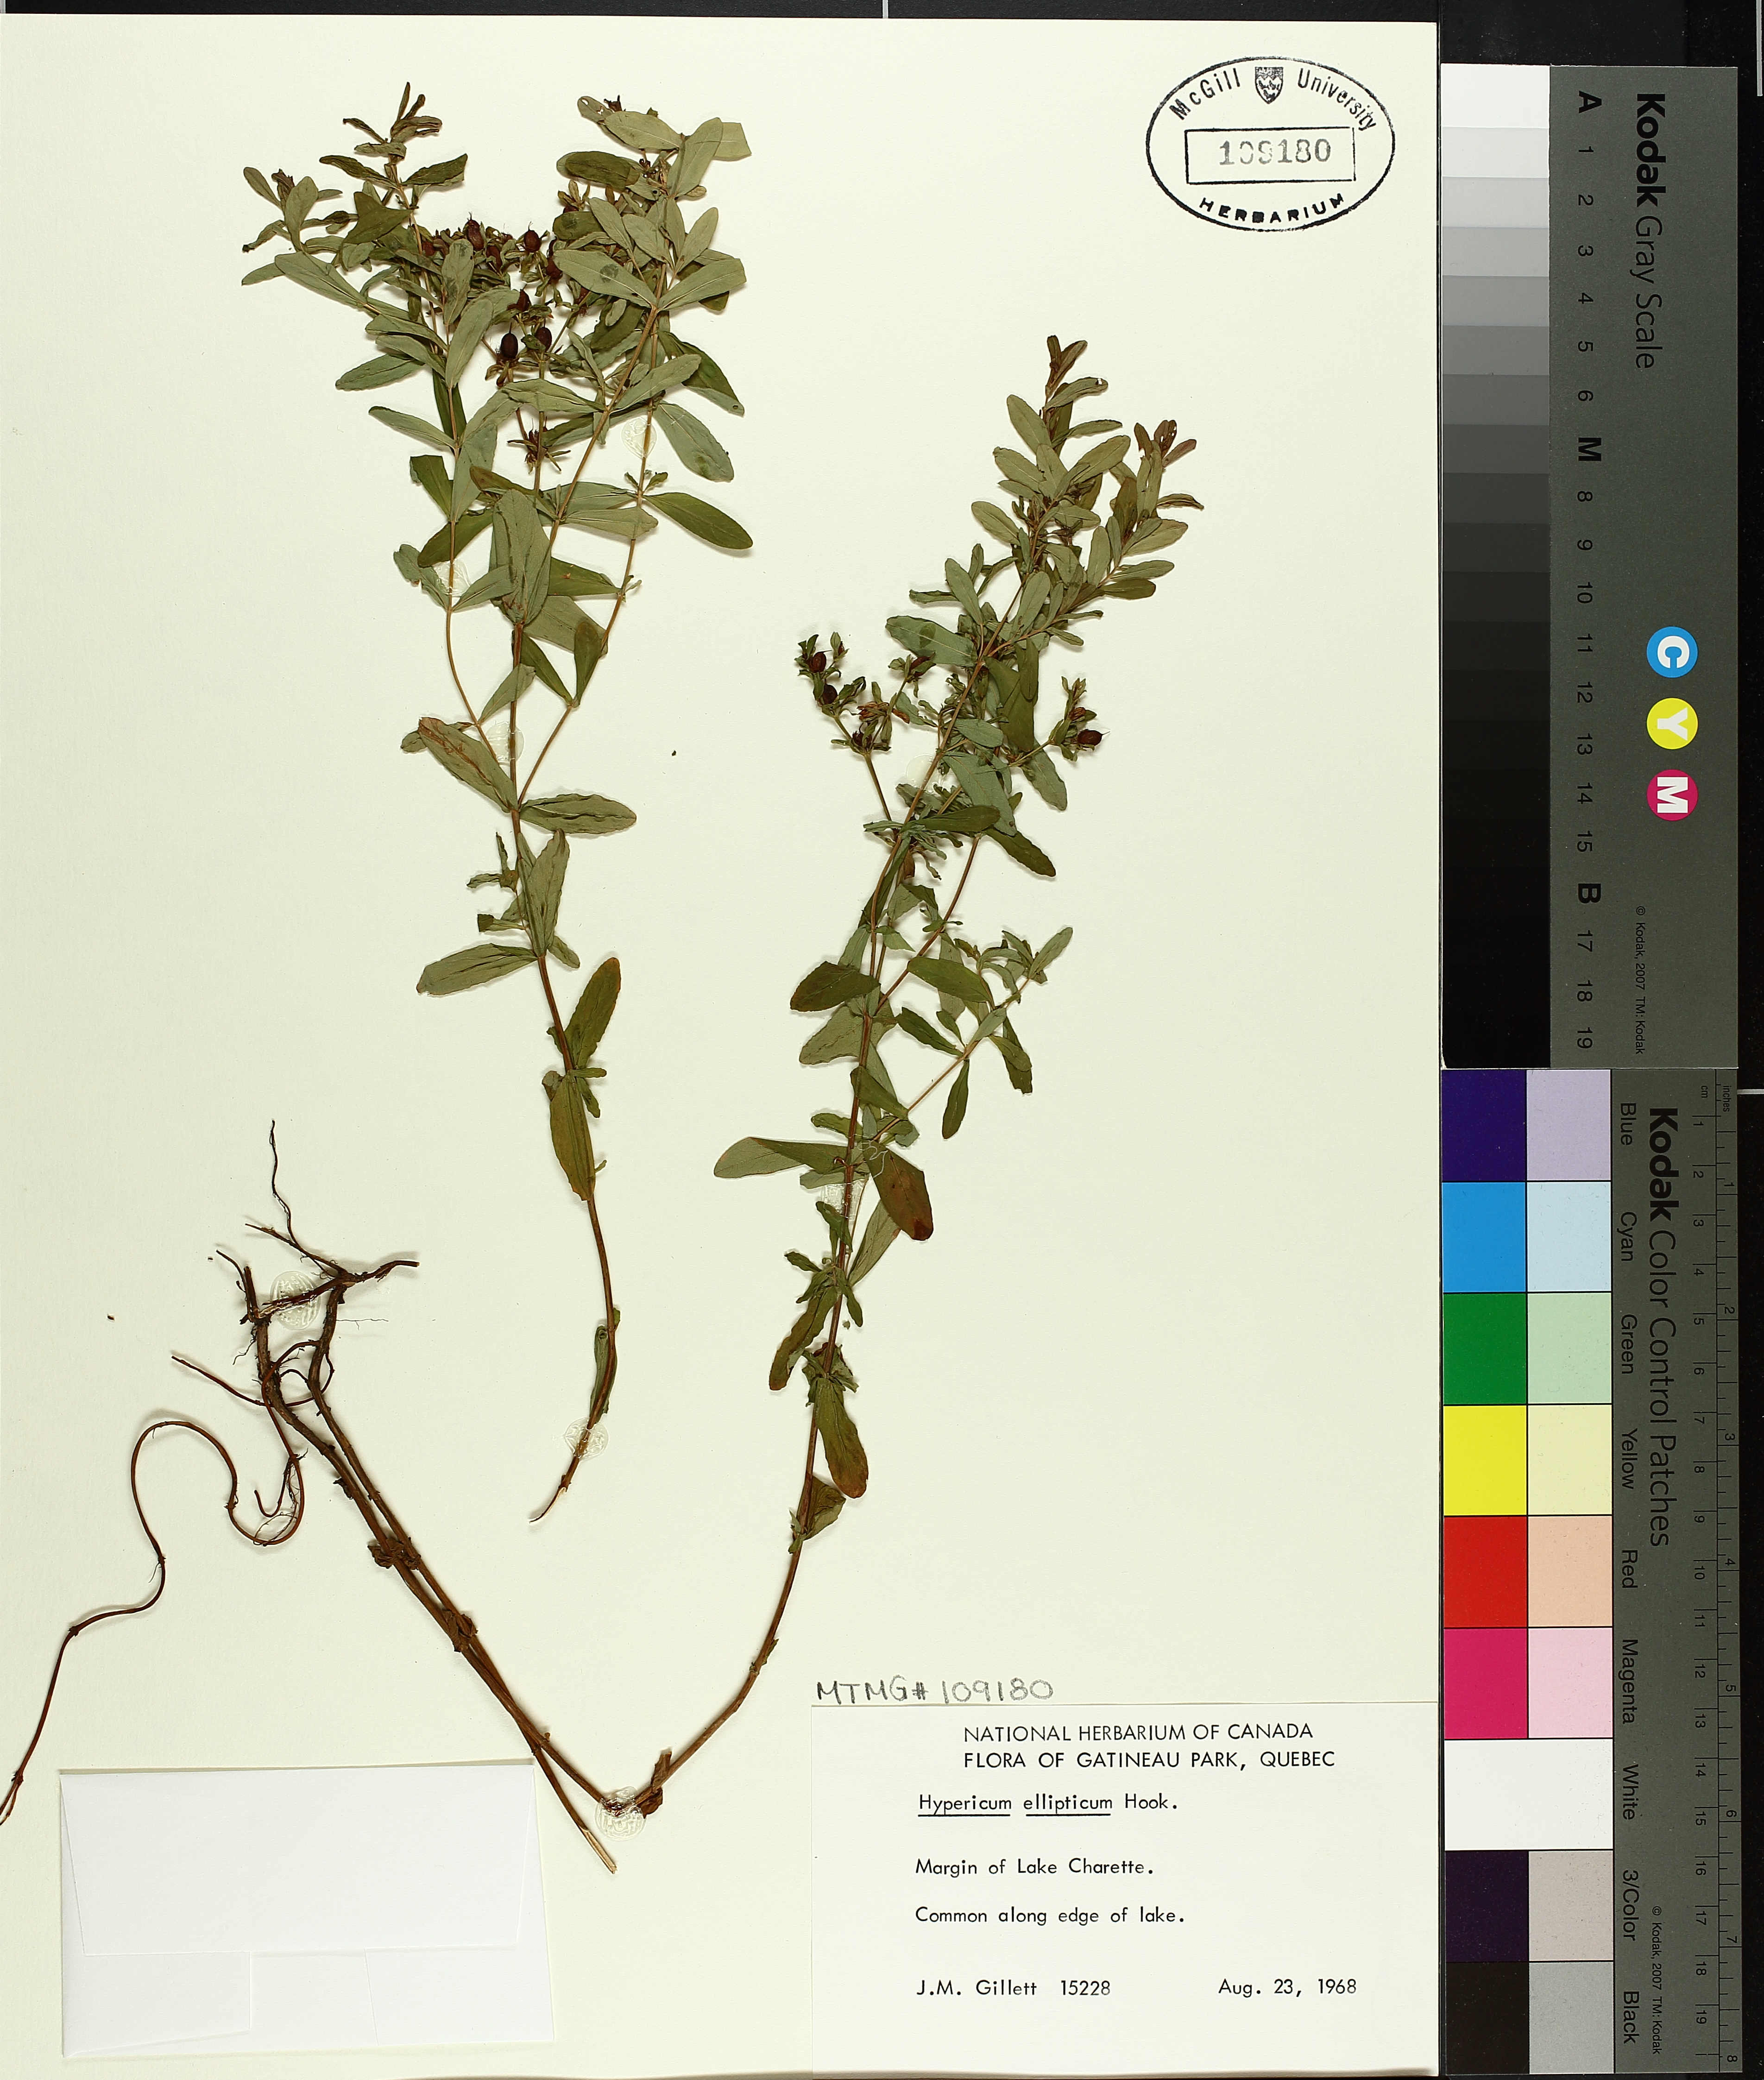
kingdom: Plantae
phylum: Tracheophyta
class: Magnoliopsida
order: Malpighiales
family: Hypericaceae
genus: Hypericum
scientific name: Hypericum ellipticum
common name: Elliptic st. john's-wort
